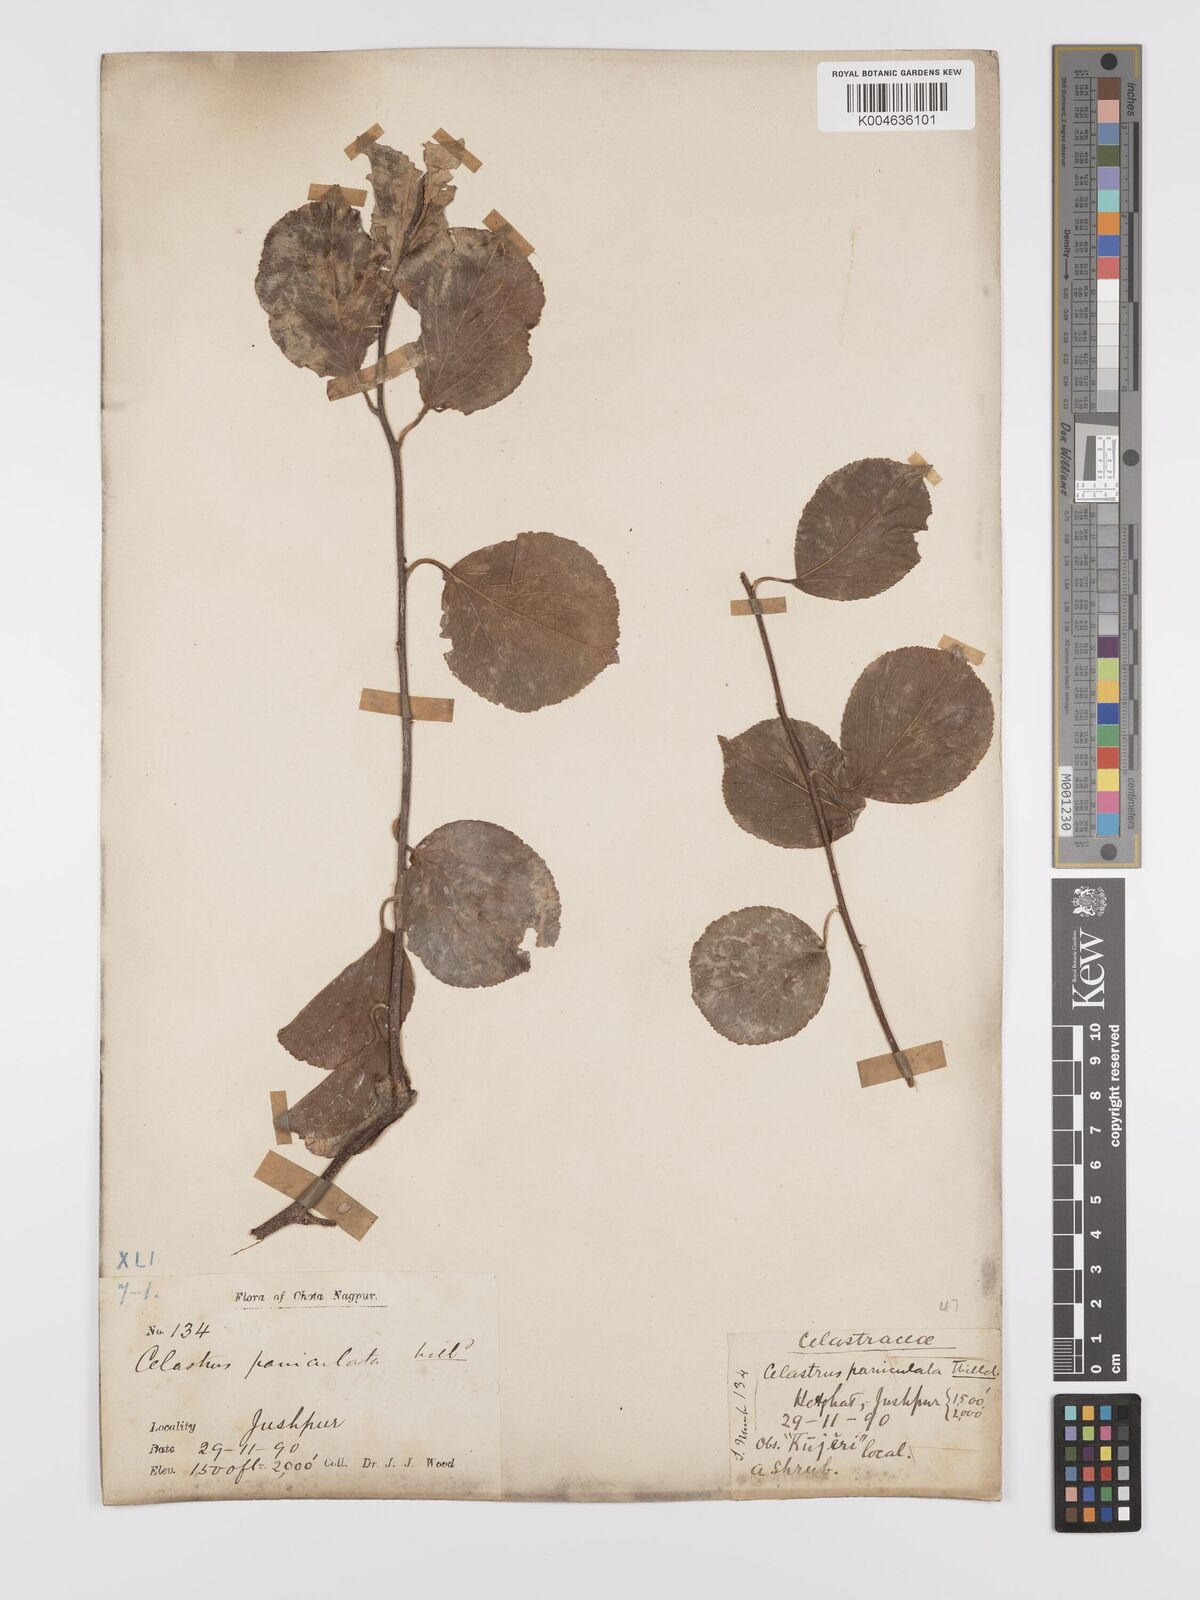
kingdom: Plantae
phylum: Tracheophyta
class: Magnoliopsida
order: Celastrales
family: Celastraceae
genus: Celastrus
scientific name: Celastrus paniculatus
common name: Oriental bittersweet; staff vine
